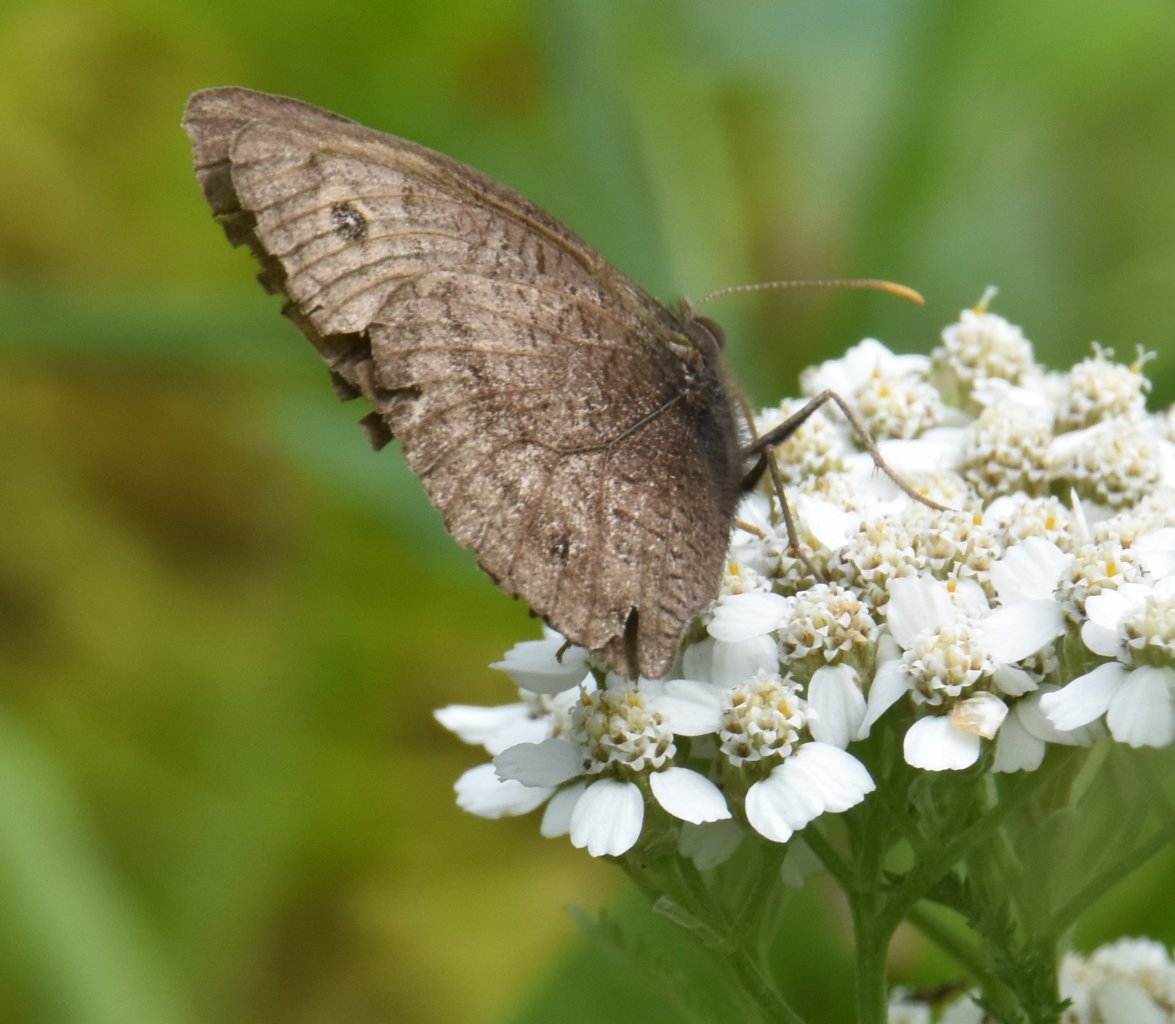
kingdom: Animalia
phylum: Arthropoda
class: Insecta
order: Lepidoptera
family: Nymphalidae
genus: Cercyonis
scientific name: Cercyonis pegala
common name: Common Wood-Nymph
